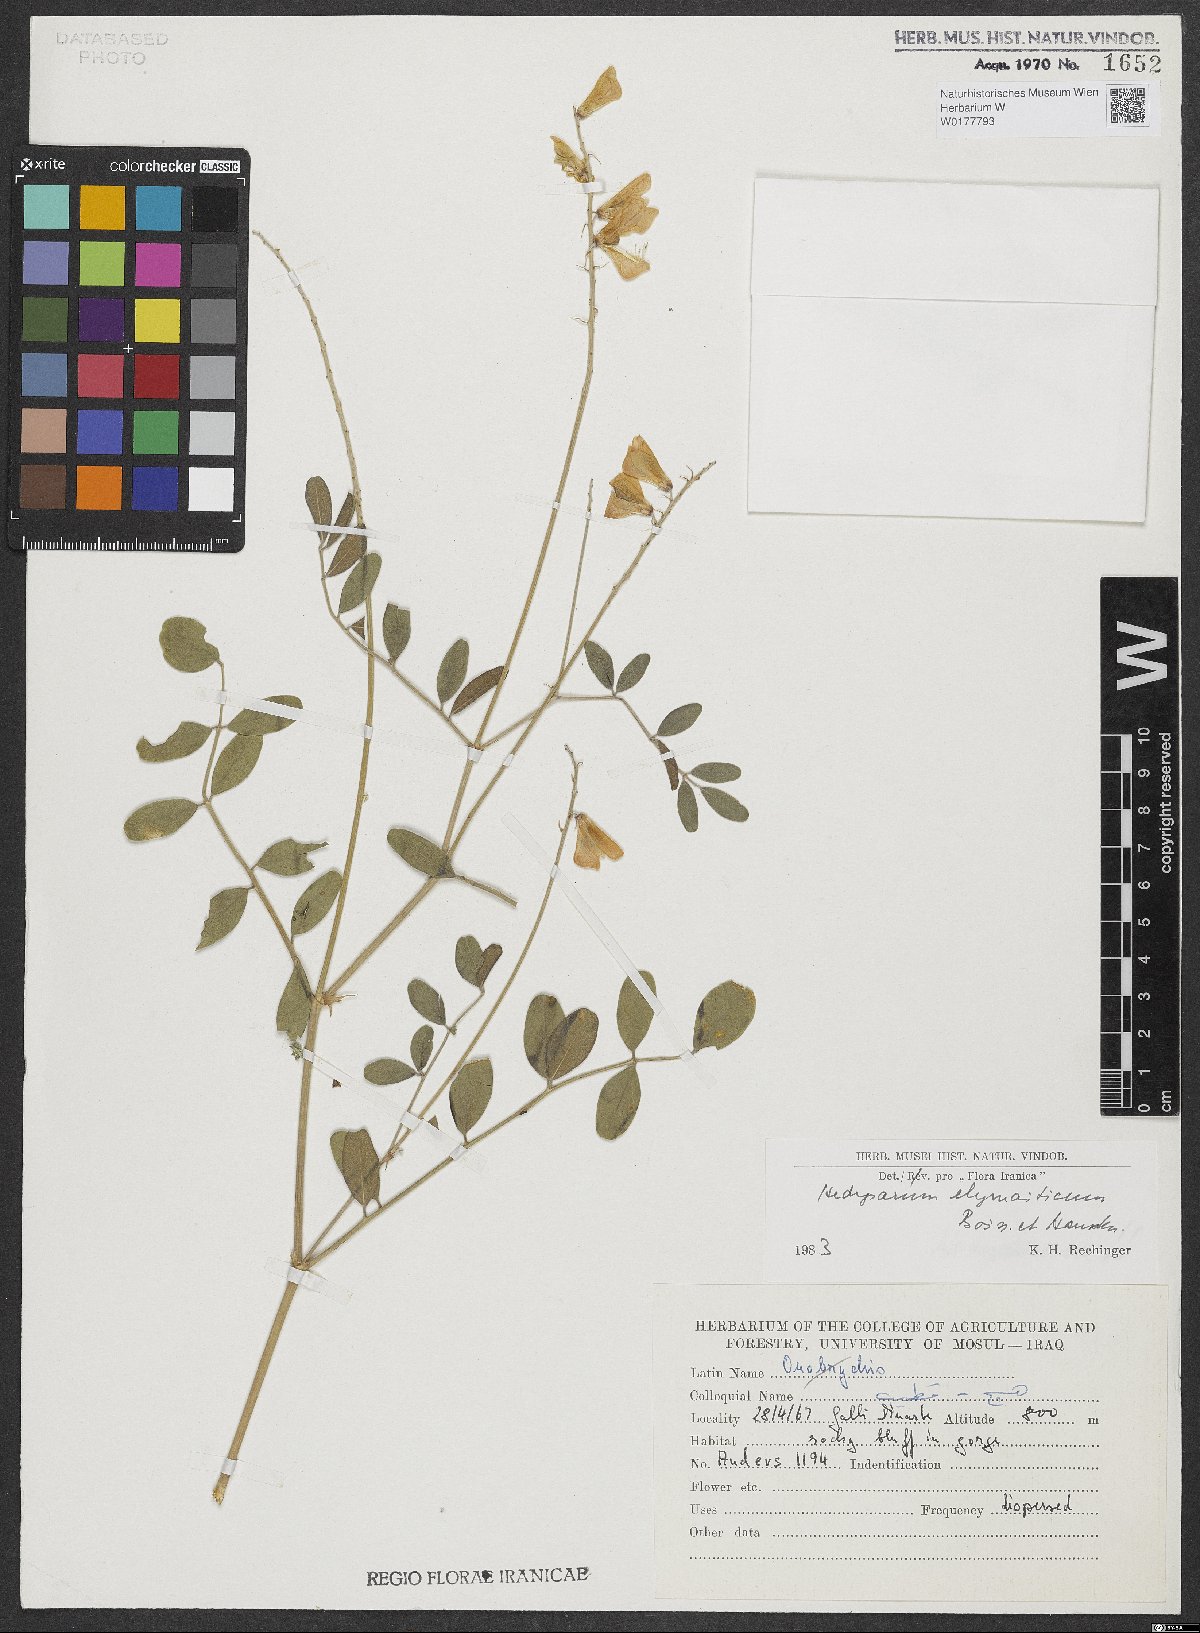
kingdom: Plantae
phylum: Tracheophyta
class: Magnoliopsida
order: Fabales
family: Fabaceae
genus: Hedysarum
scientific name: Hedysarum elymaiticum
